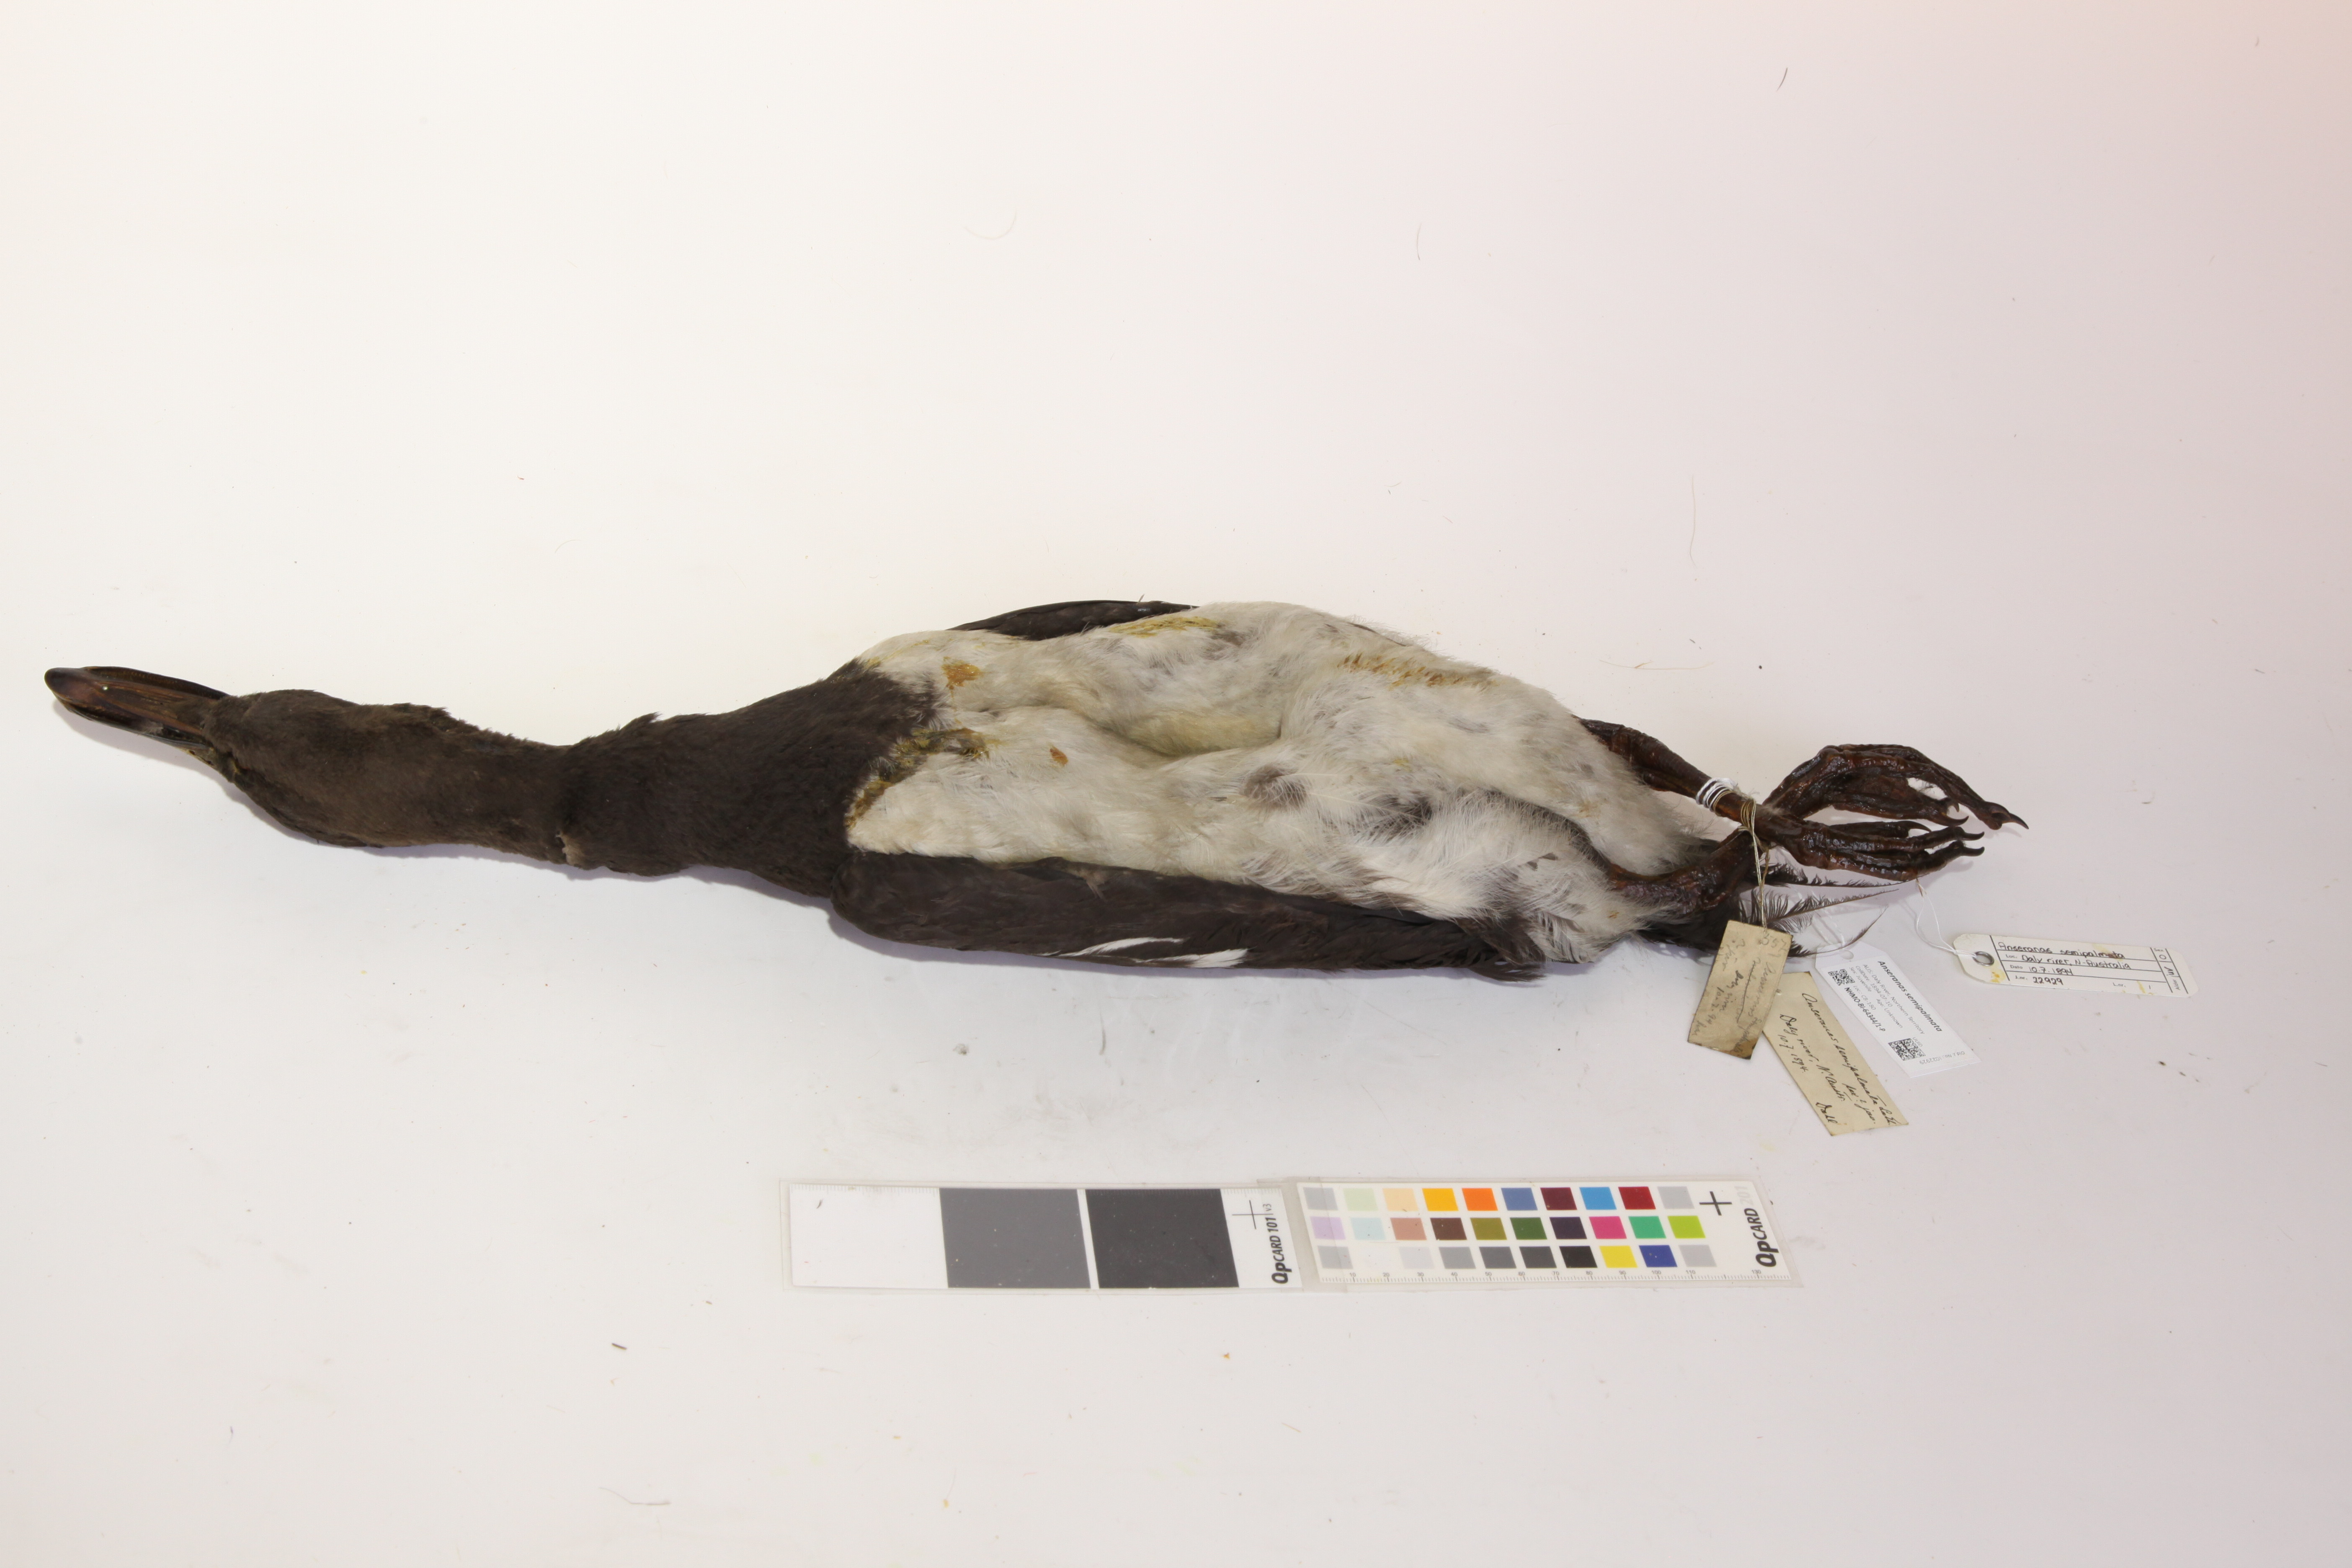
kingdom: Animalia
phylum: Chordata
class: Aves
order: Anseriformes
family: Anseranatidae
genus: Anseranas
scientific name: Anseranas semipalmata
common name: Magpie goose
